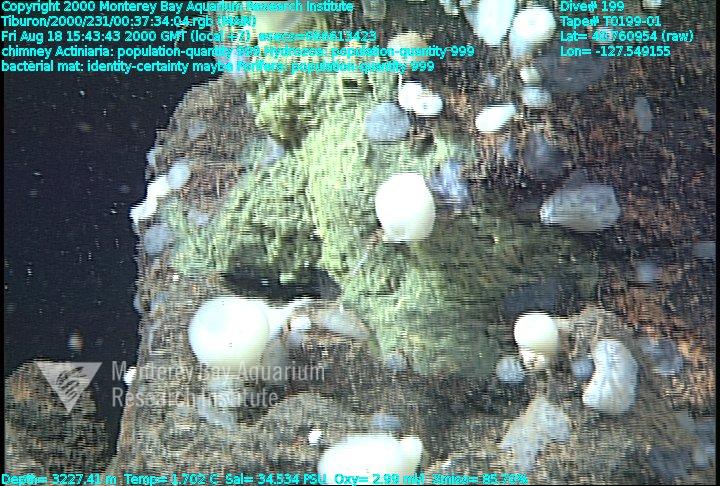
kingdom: Animalia
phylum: Porifera
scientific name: Porifera
